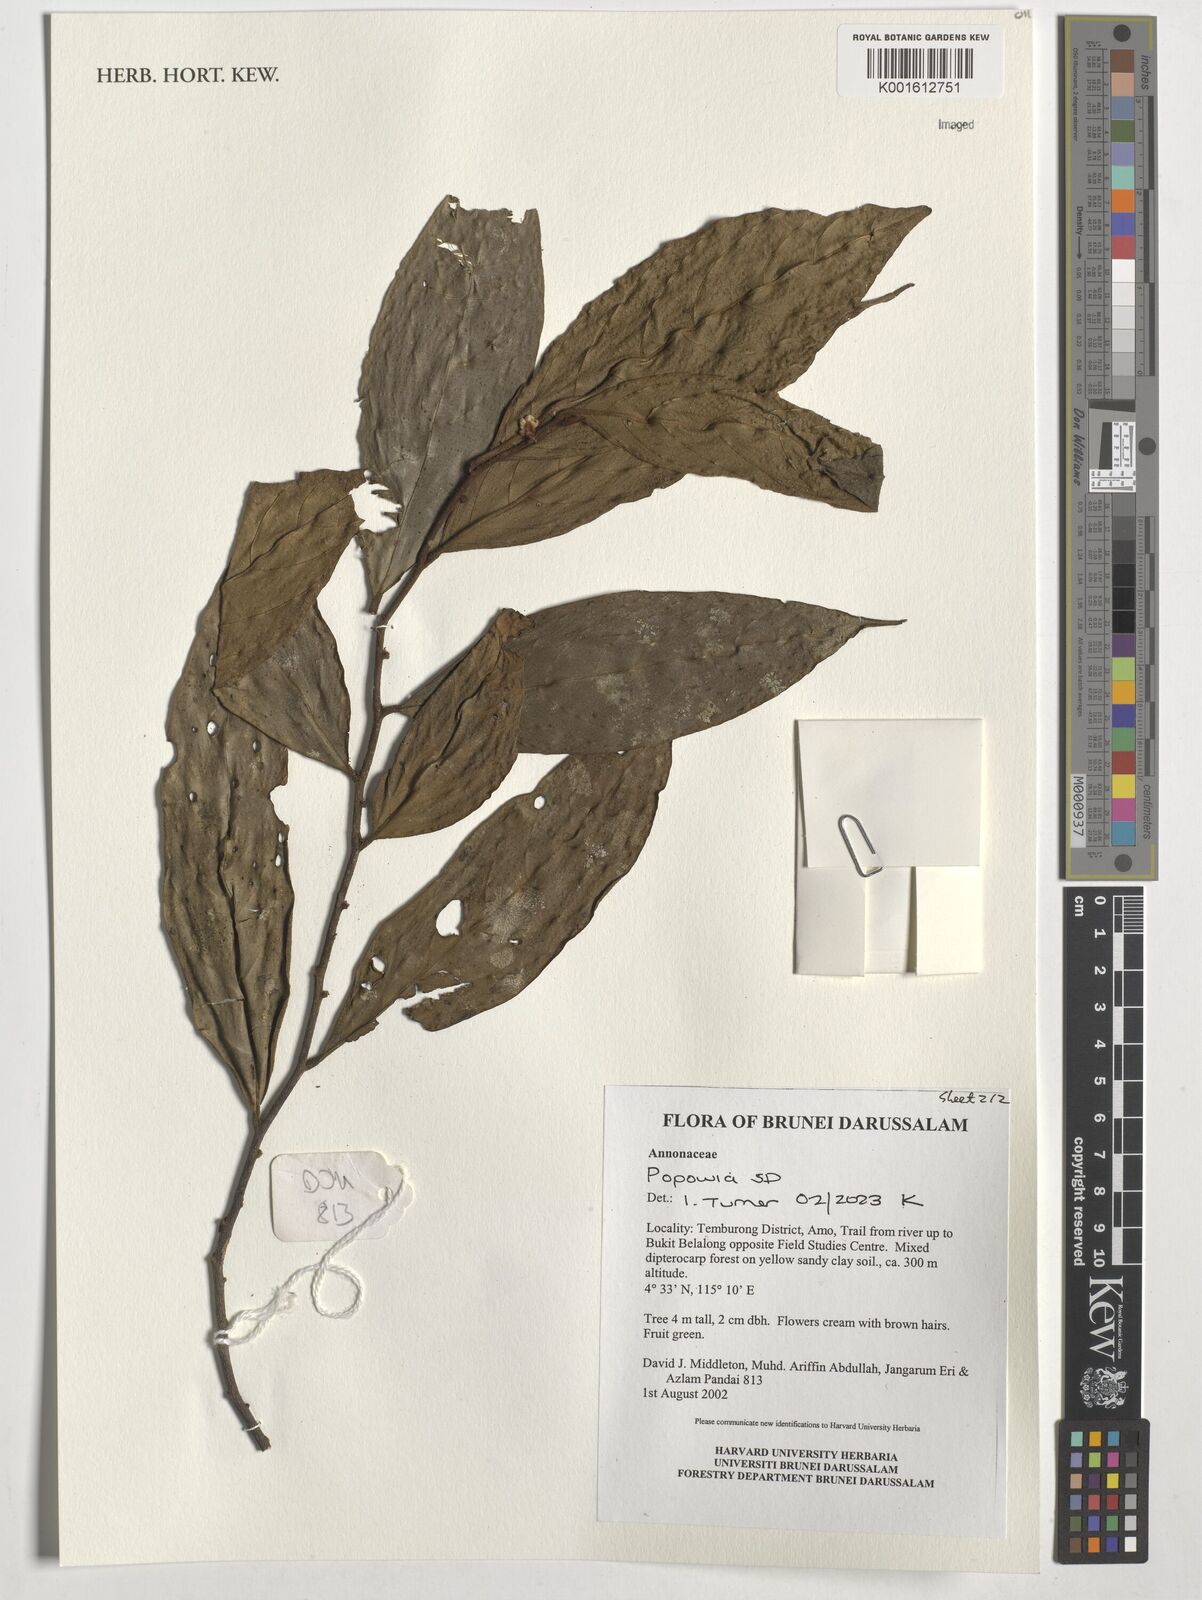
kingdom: Plantae
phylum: Tracheophyta
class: Magnoliopsida
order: Magnoliales
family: Annonaceae
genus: Popowia
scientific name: Popowia
